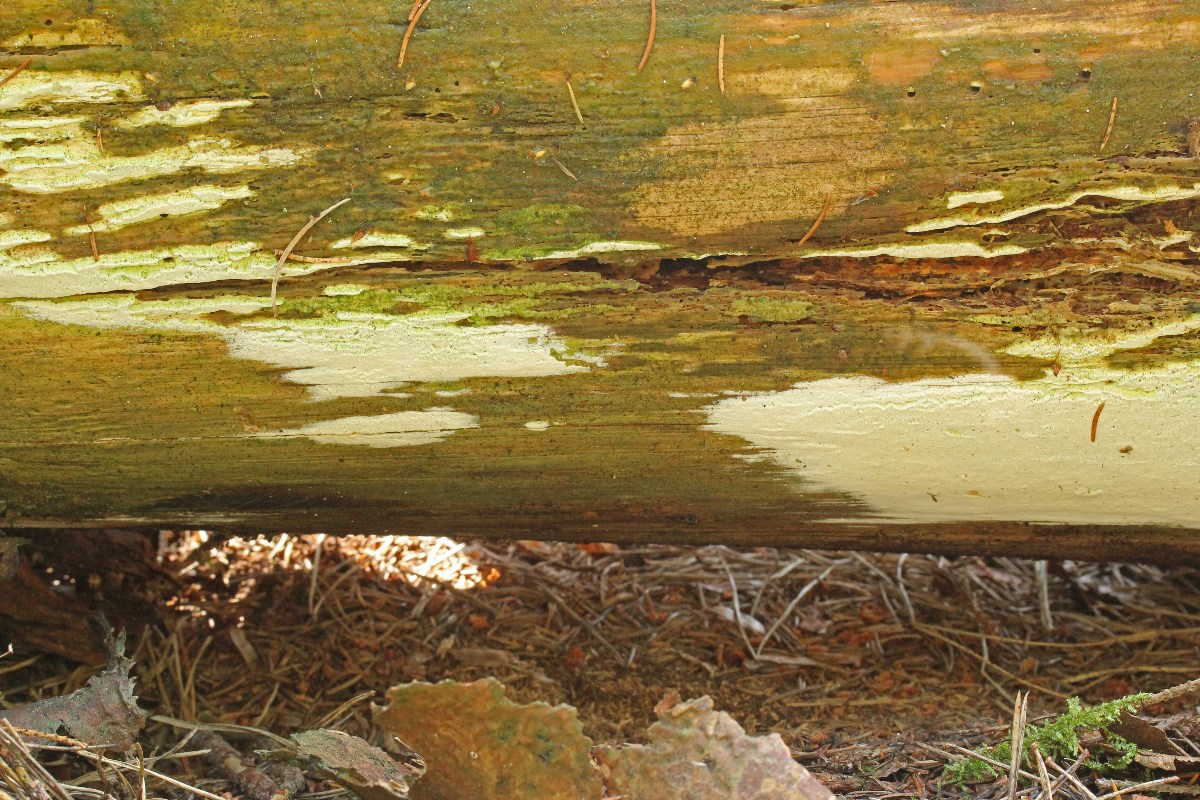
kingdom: Fungi
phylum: Basidiomycota
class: Agaricomycetes
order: Hymenochaetales
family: Rickenellaceae
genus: Sidera
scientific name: Sidera vulgaris
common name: fin flødeporesvamp
